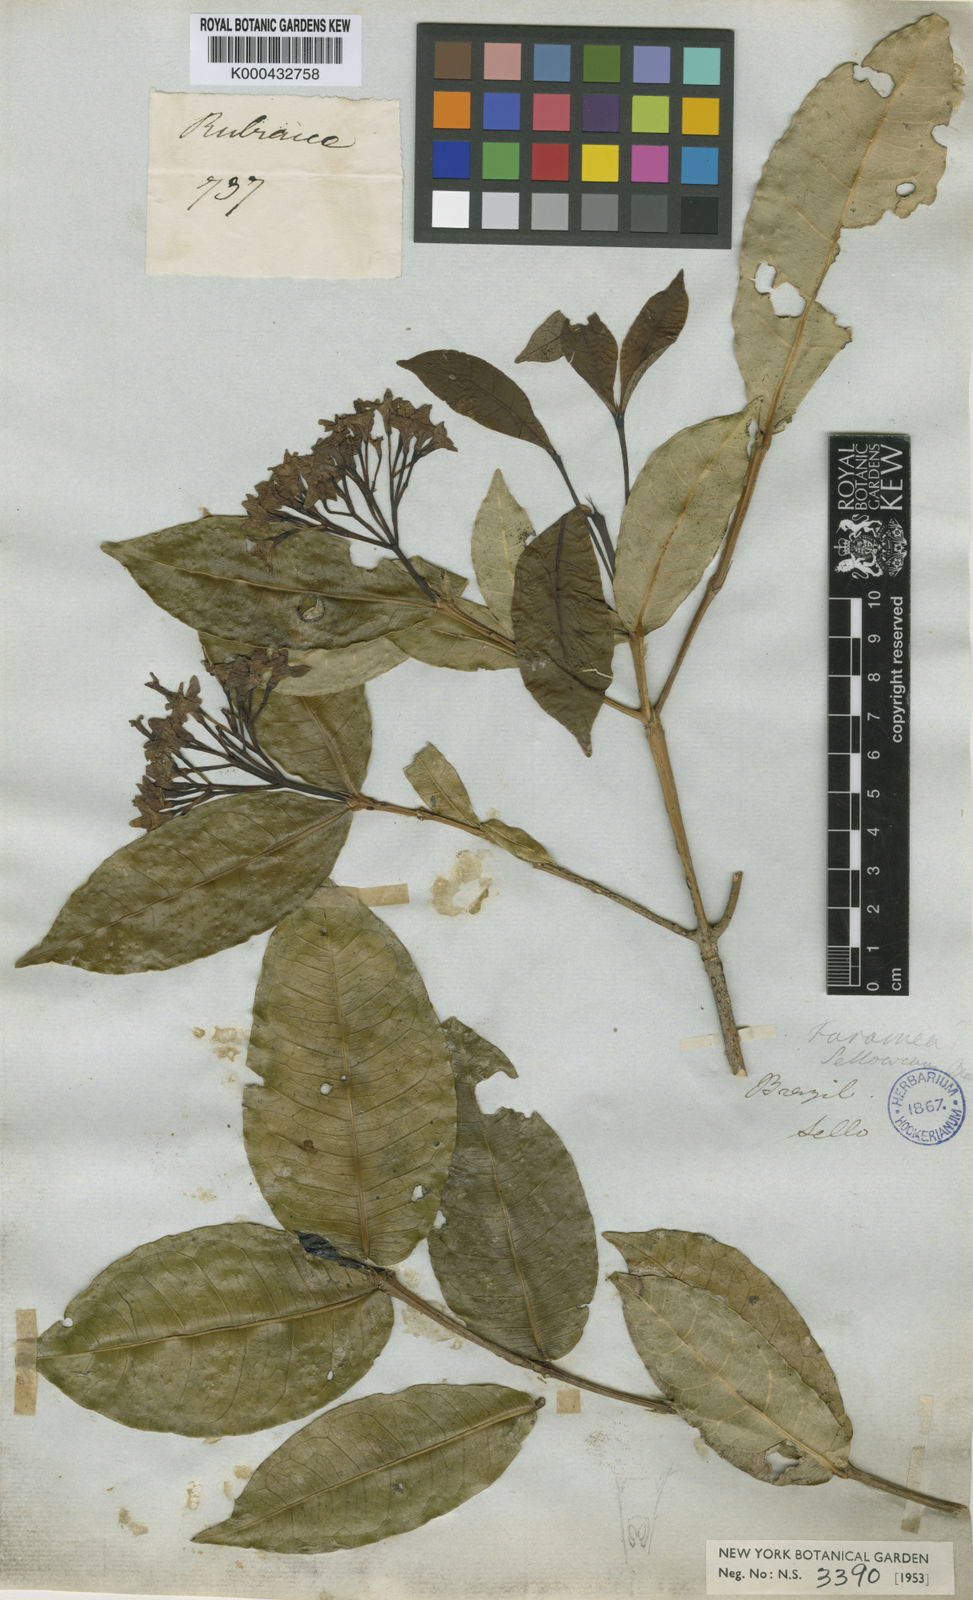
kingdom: Plantae
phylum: Tracheophyta
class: Magnoliopsida
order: Gentianales
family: Rubiaceae
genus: Faramea
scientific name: Faramea sellowiana
